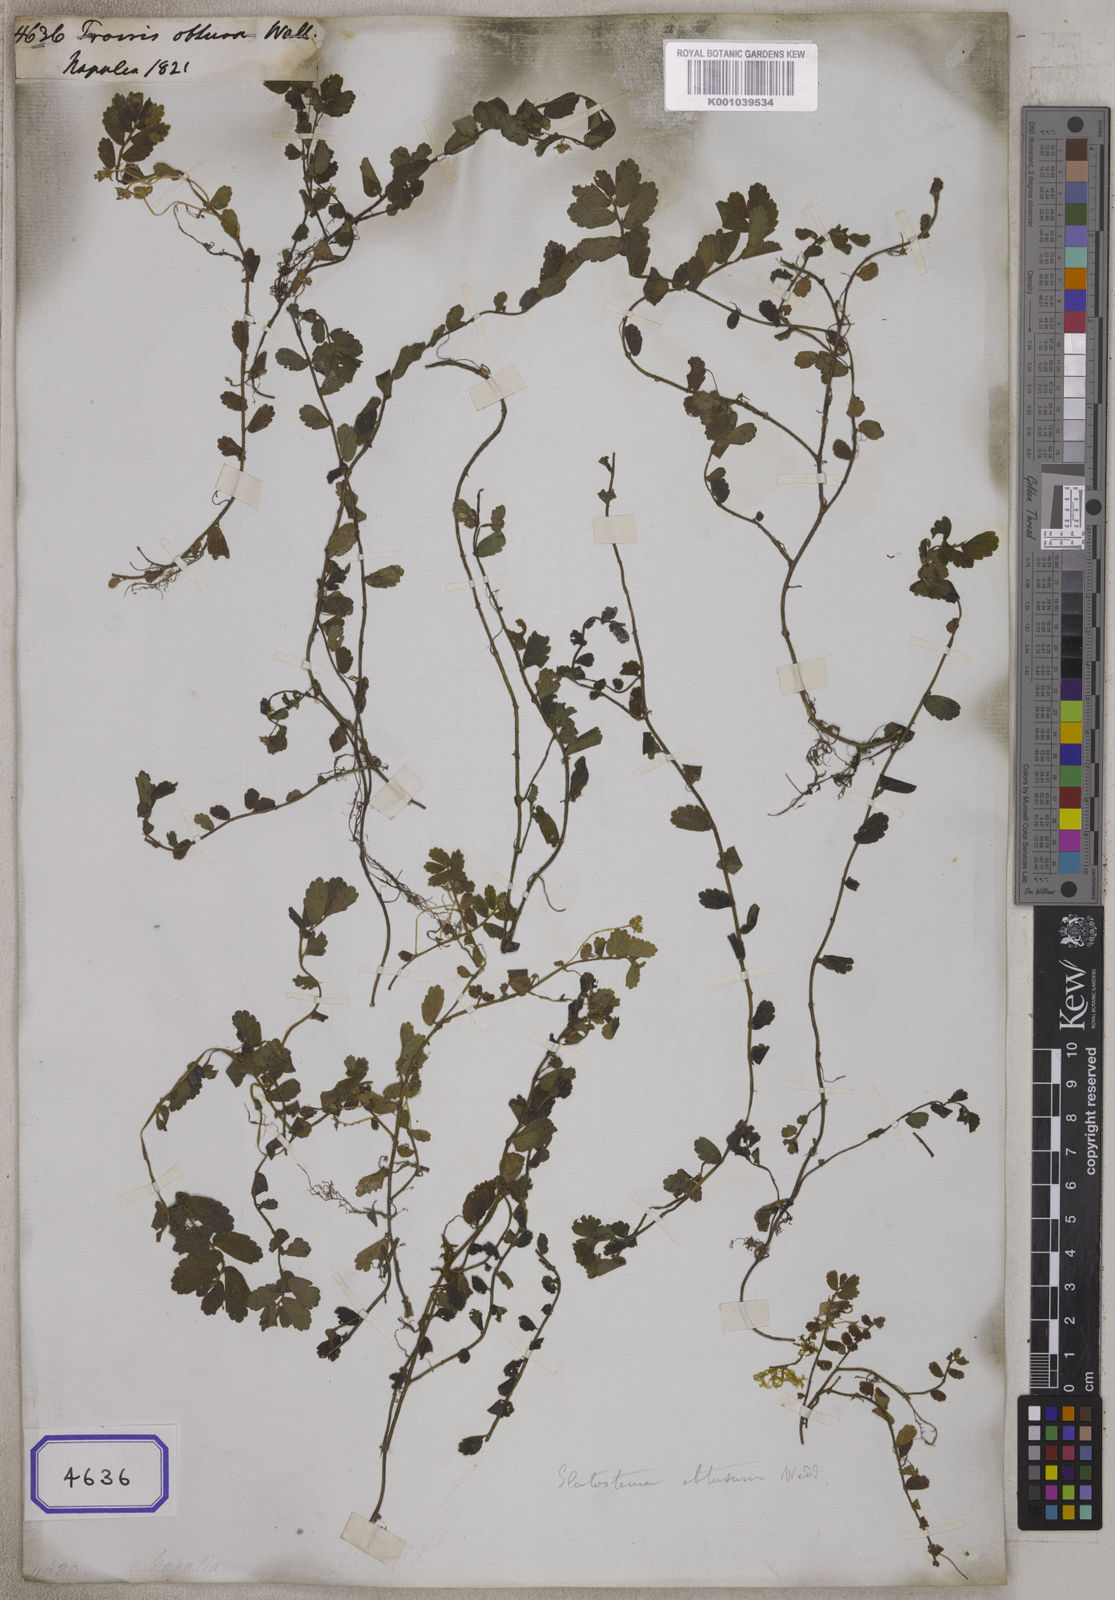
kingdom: Plantae
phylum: Tracheophyta
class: Magnoliopsida
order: Rosales
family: Urticaceae
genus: Elatostema
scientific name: Elatostema obtusum
